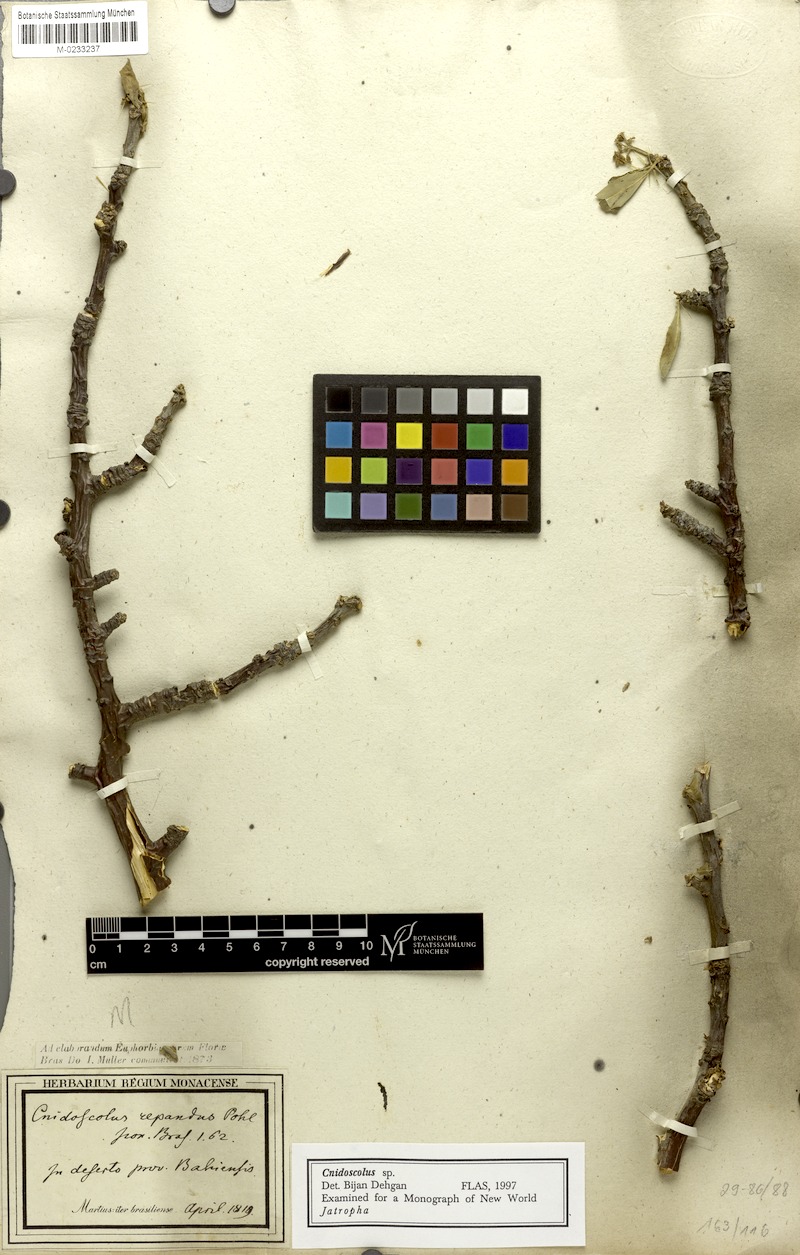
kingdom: Plantae
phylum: Tracheophyta
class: Magnoliopsida
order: Malpighiales
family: Euphorbiaceae
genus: Cnidoscolus
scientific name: Cnidoscolus quercifolius
